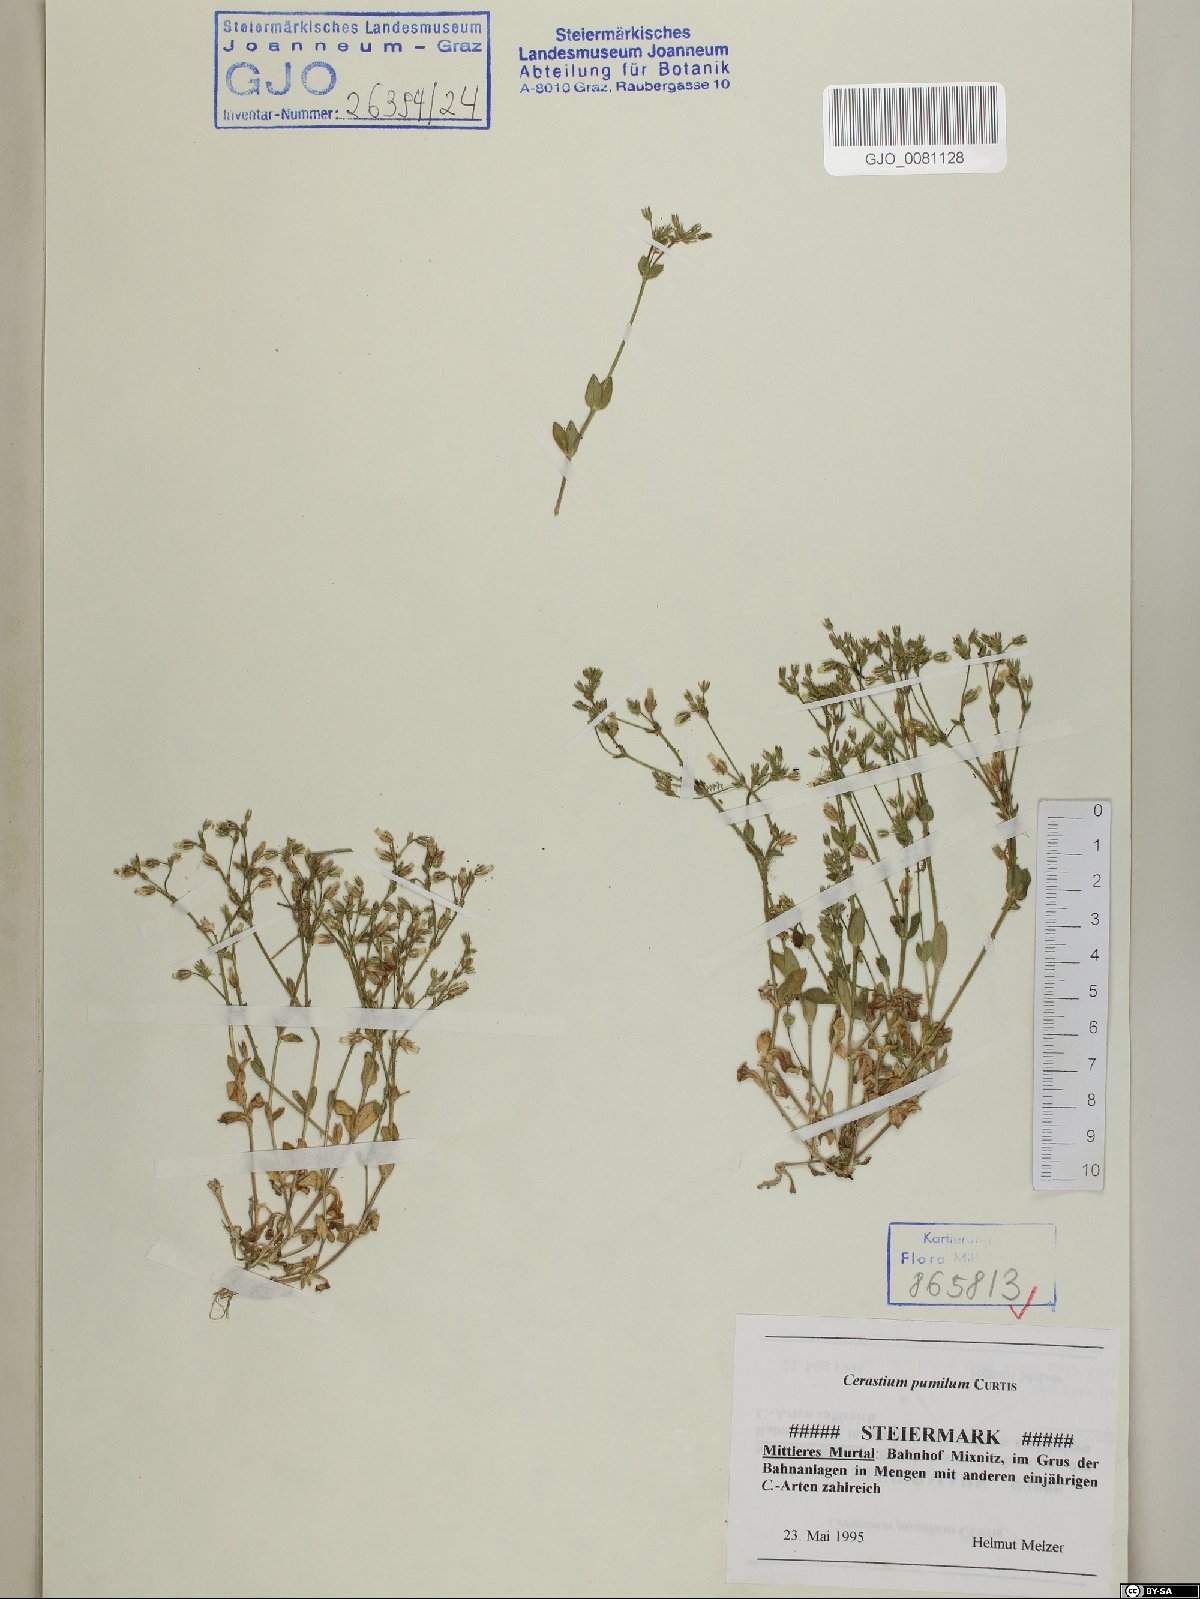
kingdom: Plantae
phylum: Tracheophyta
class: Magnoliopsida
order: Caryophyllales
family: Caryophyllaceae
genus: Cerastium
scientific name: Cerastium pumilum
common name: Dwarf mouse-ear
